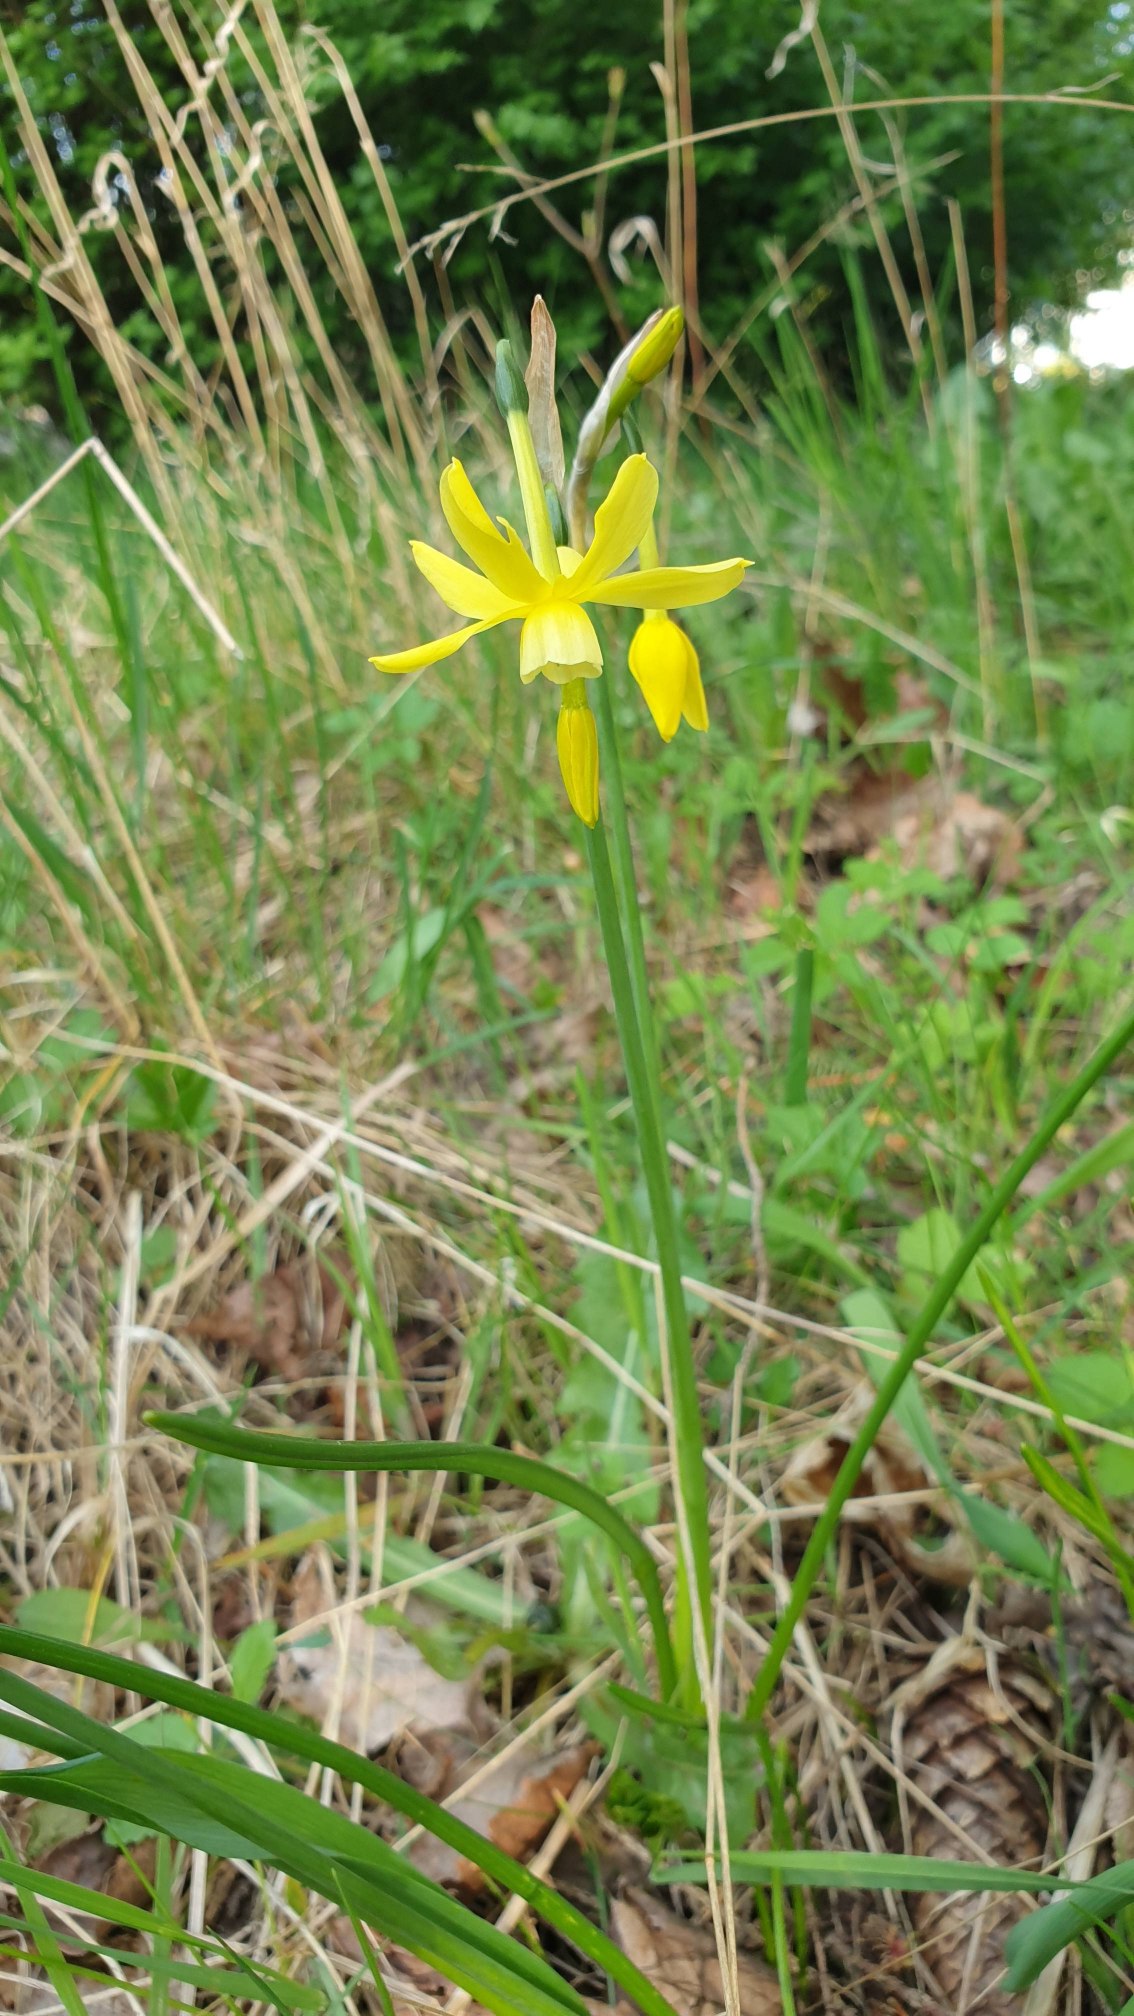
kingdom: Plantae
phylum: Tracheophyta
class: Liliopsida
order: Asparagales
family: Amaryllidaceae
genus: Narcissus
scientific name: Narcissus jonquilla
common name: Siv-narcis
